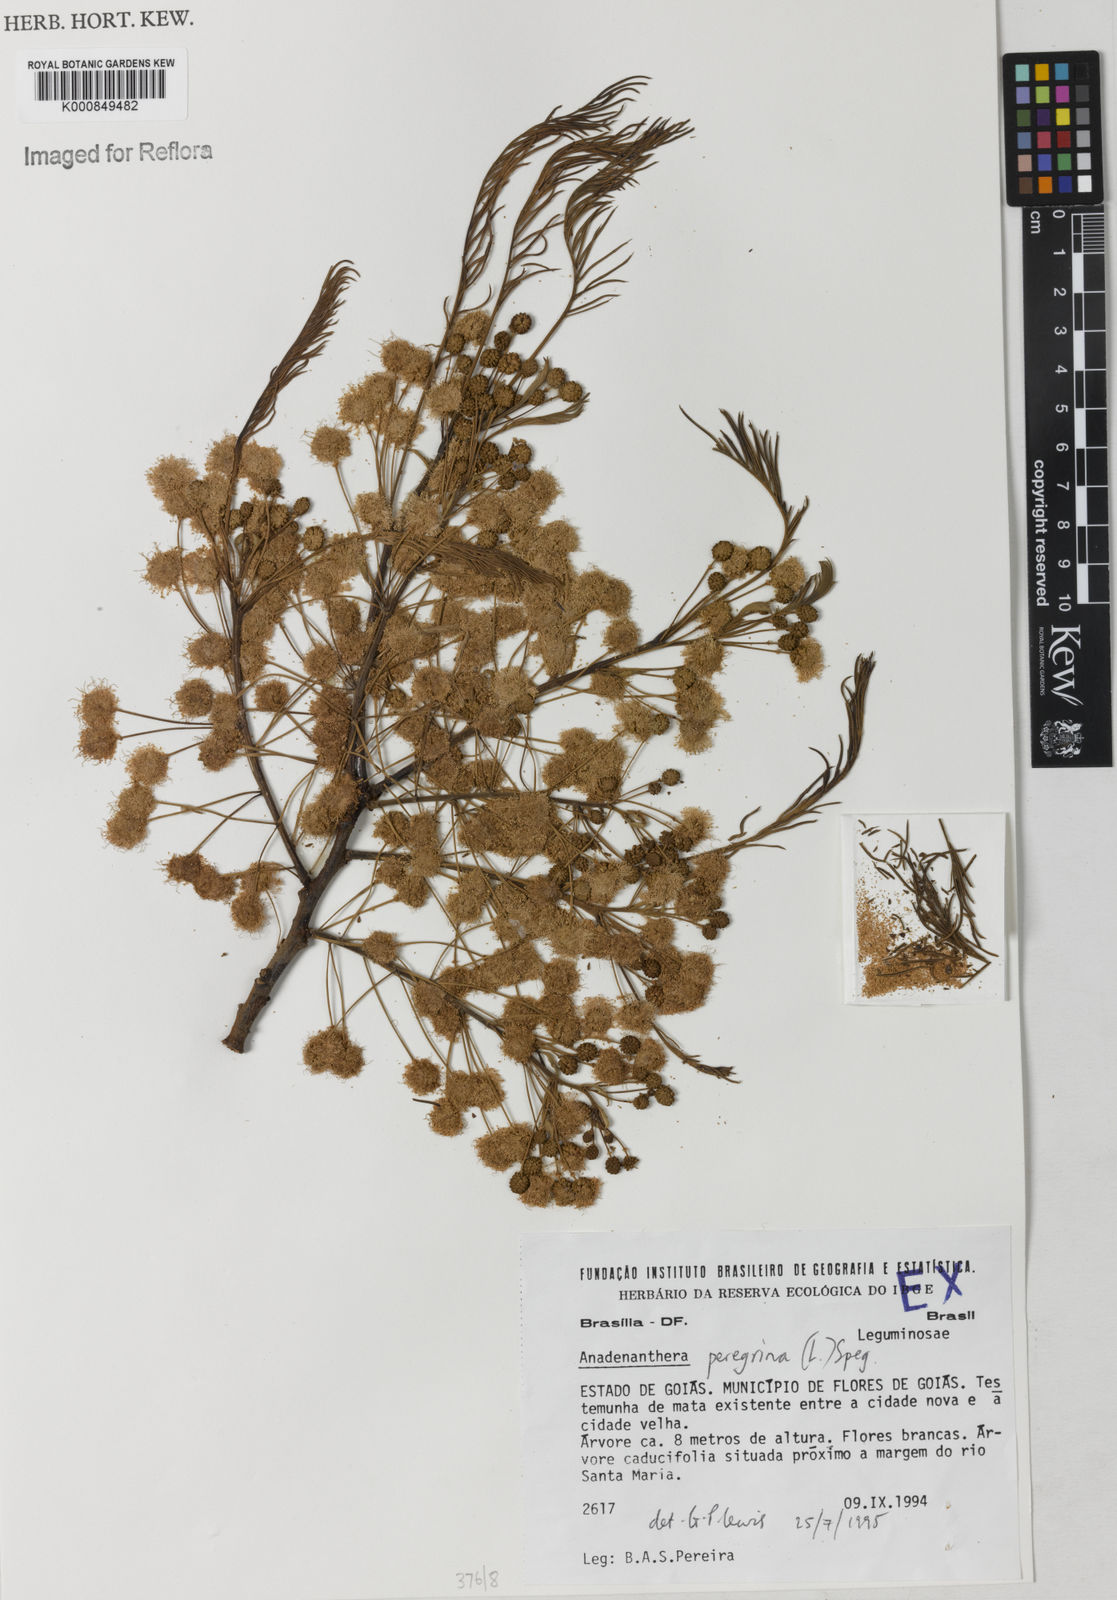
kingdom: Plantae
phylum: Tracheophyta
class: Magnoliopsida
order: Fabales
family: Fabaceae
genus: Anadenanthera
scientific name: Anadenanthera peregrina
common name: Cohoba
